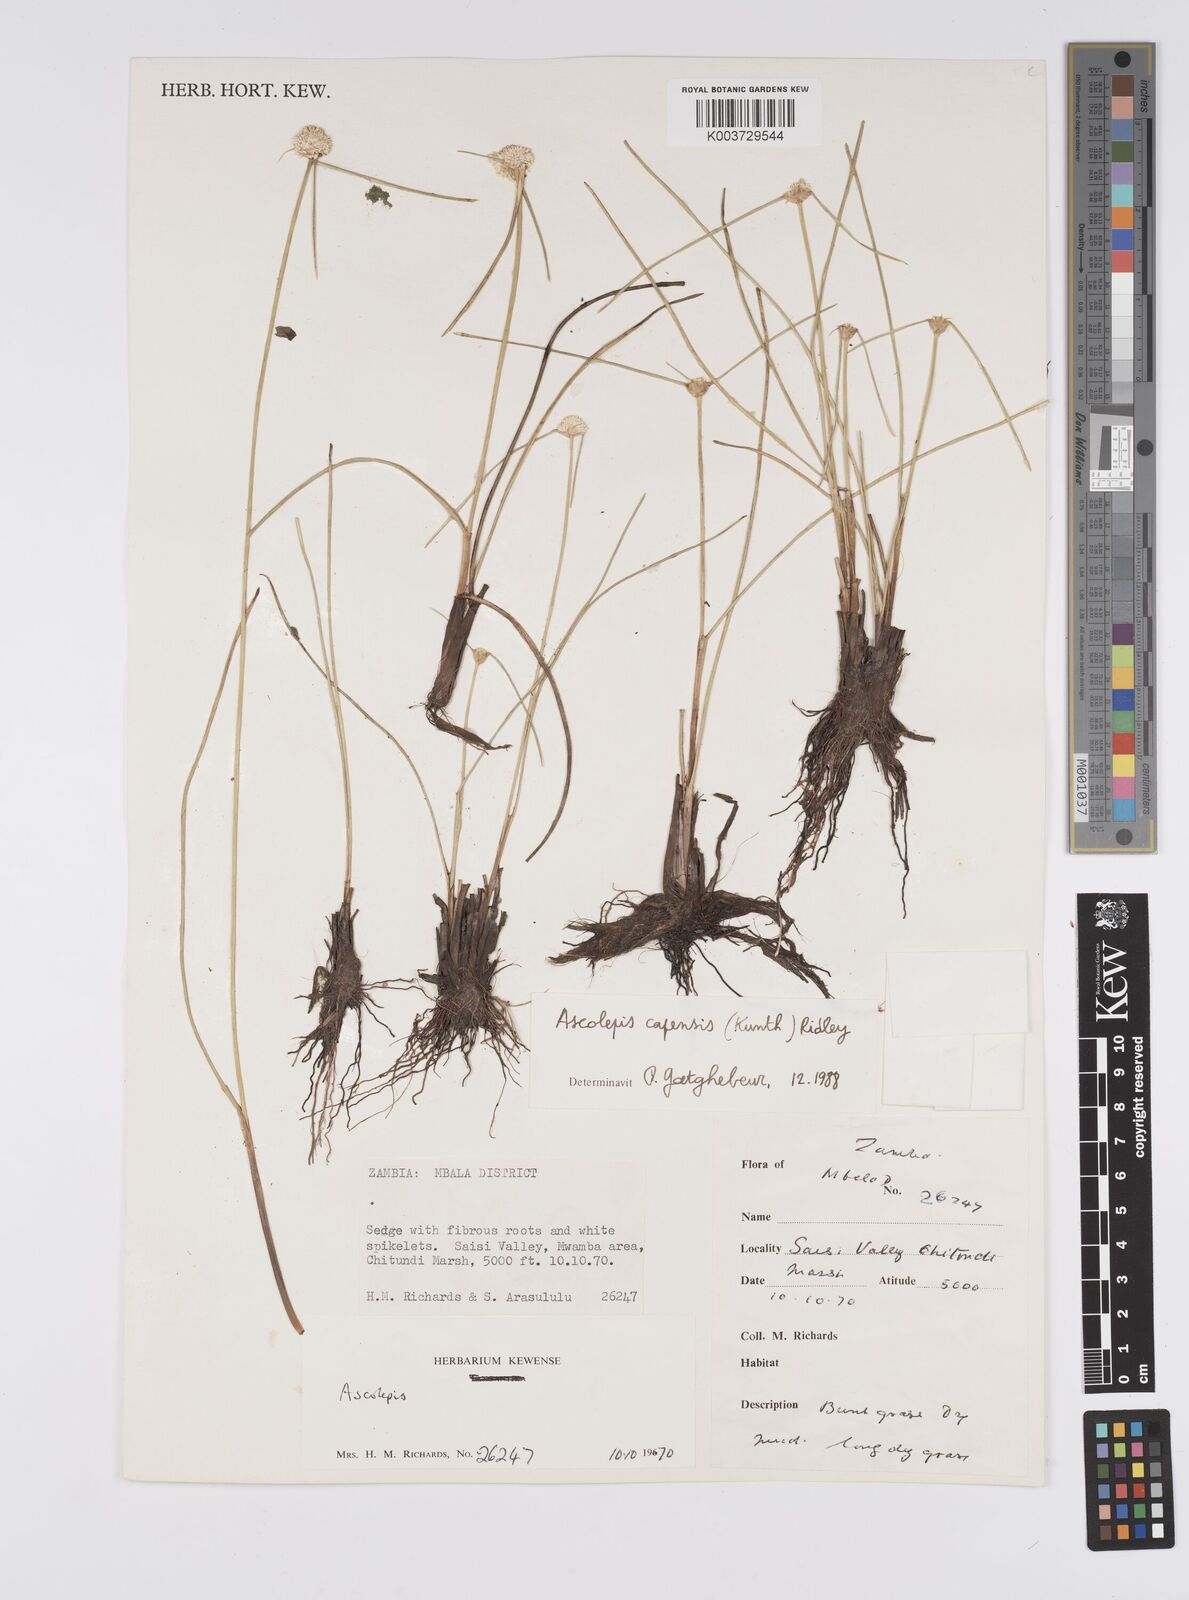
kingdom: Plantae
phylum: Tracheophyta
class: Liliopsida
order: Poales
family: Cyperaceae
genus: Cyperus
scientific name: Cyperus ascocapensis
